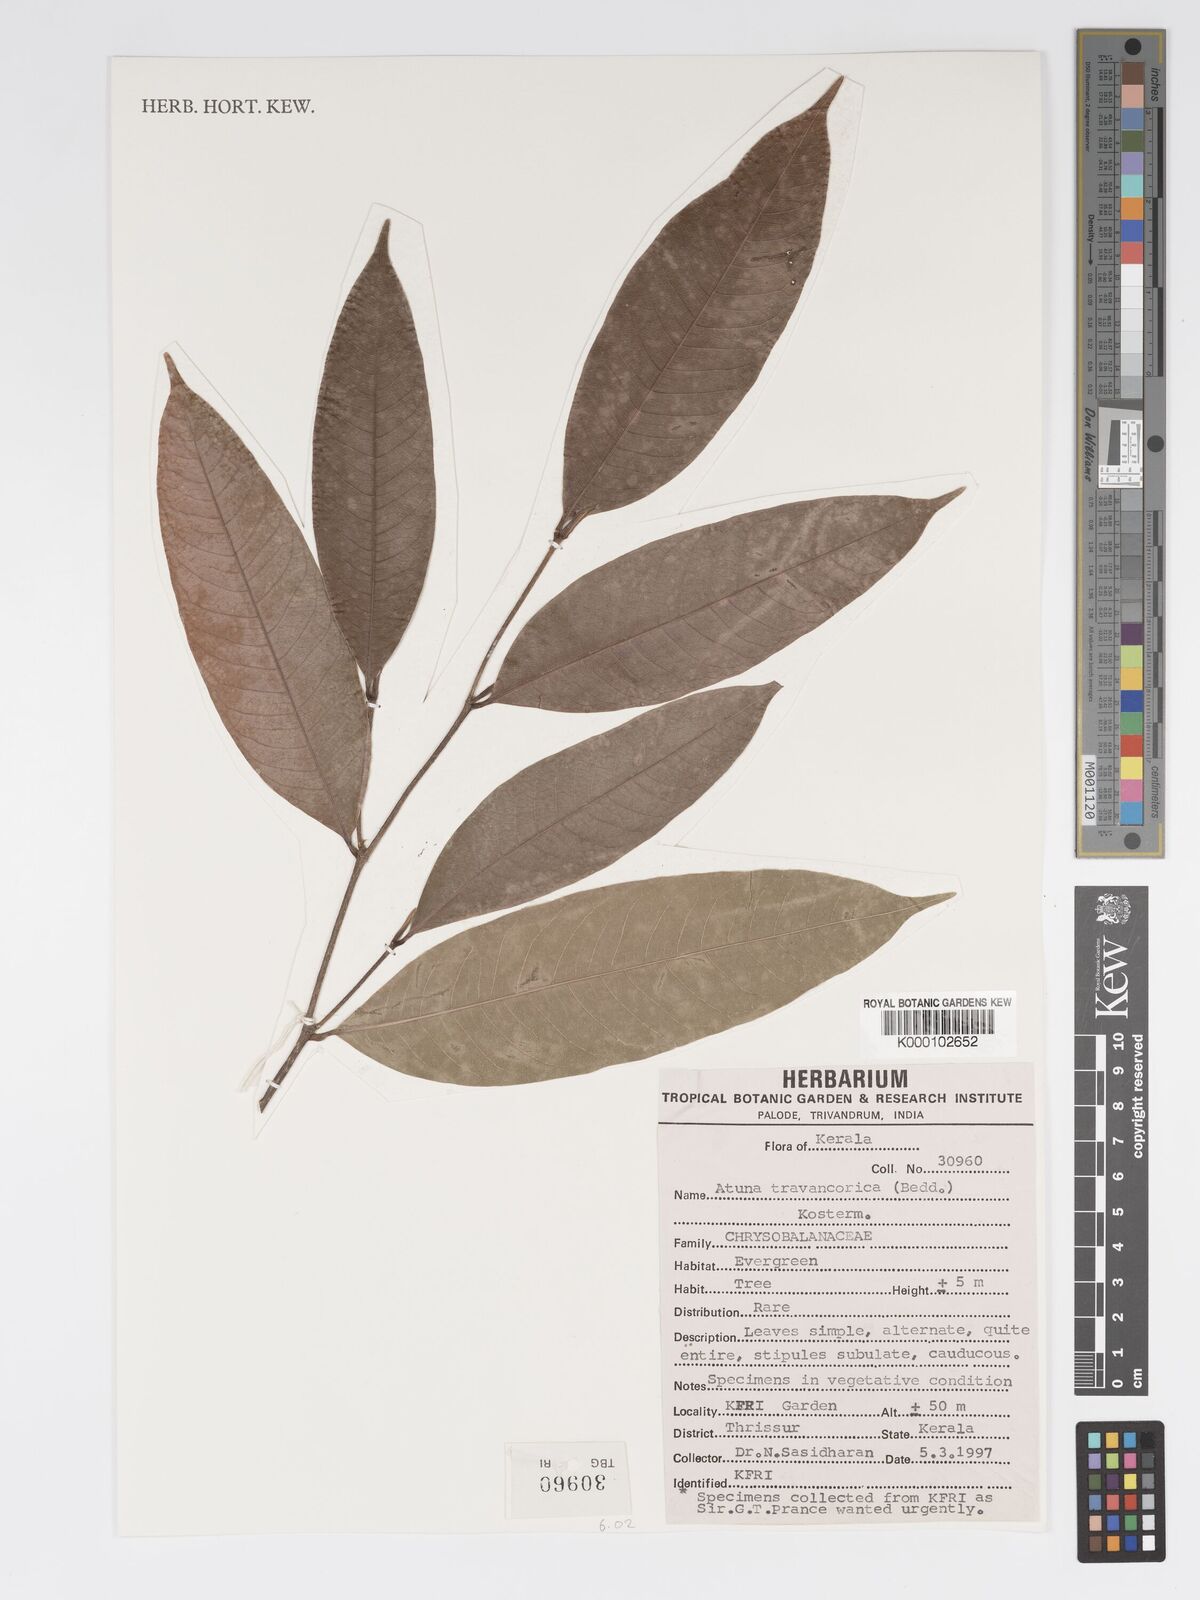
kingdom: Plantae
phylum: Tracheophyta
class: Magnoliopsida
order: Malpighiales
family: Chrysobalanaceae
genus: Atuna
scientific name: Atuna travancorica
